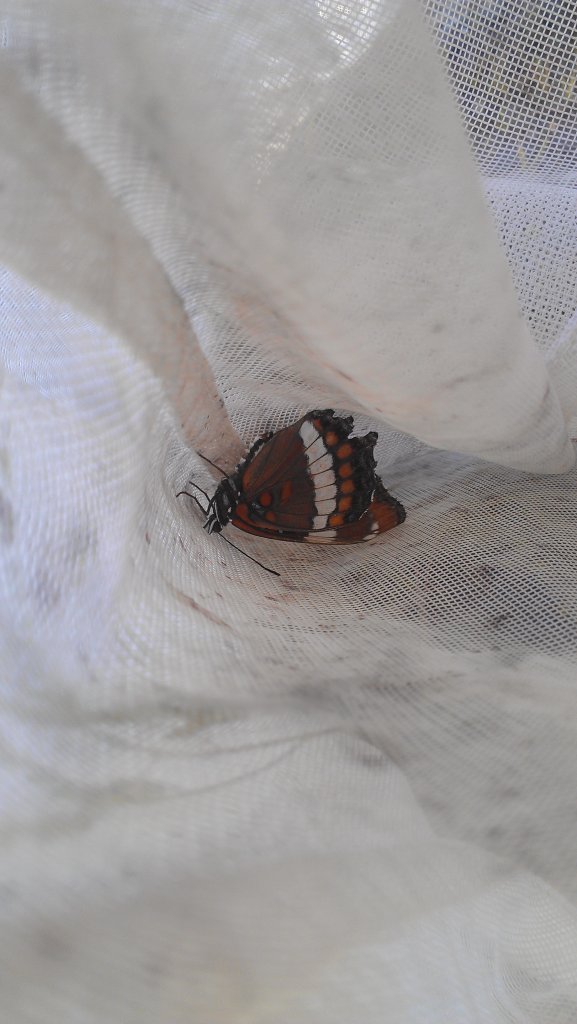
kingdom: Animalia
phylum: Arthropoda
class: Insecta
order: Lepidoptera
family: Nymphalidae
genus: Limenitis
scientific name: Limenitis arthemis
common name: Red-spotted Admiral
